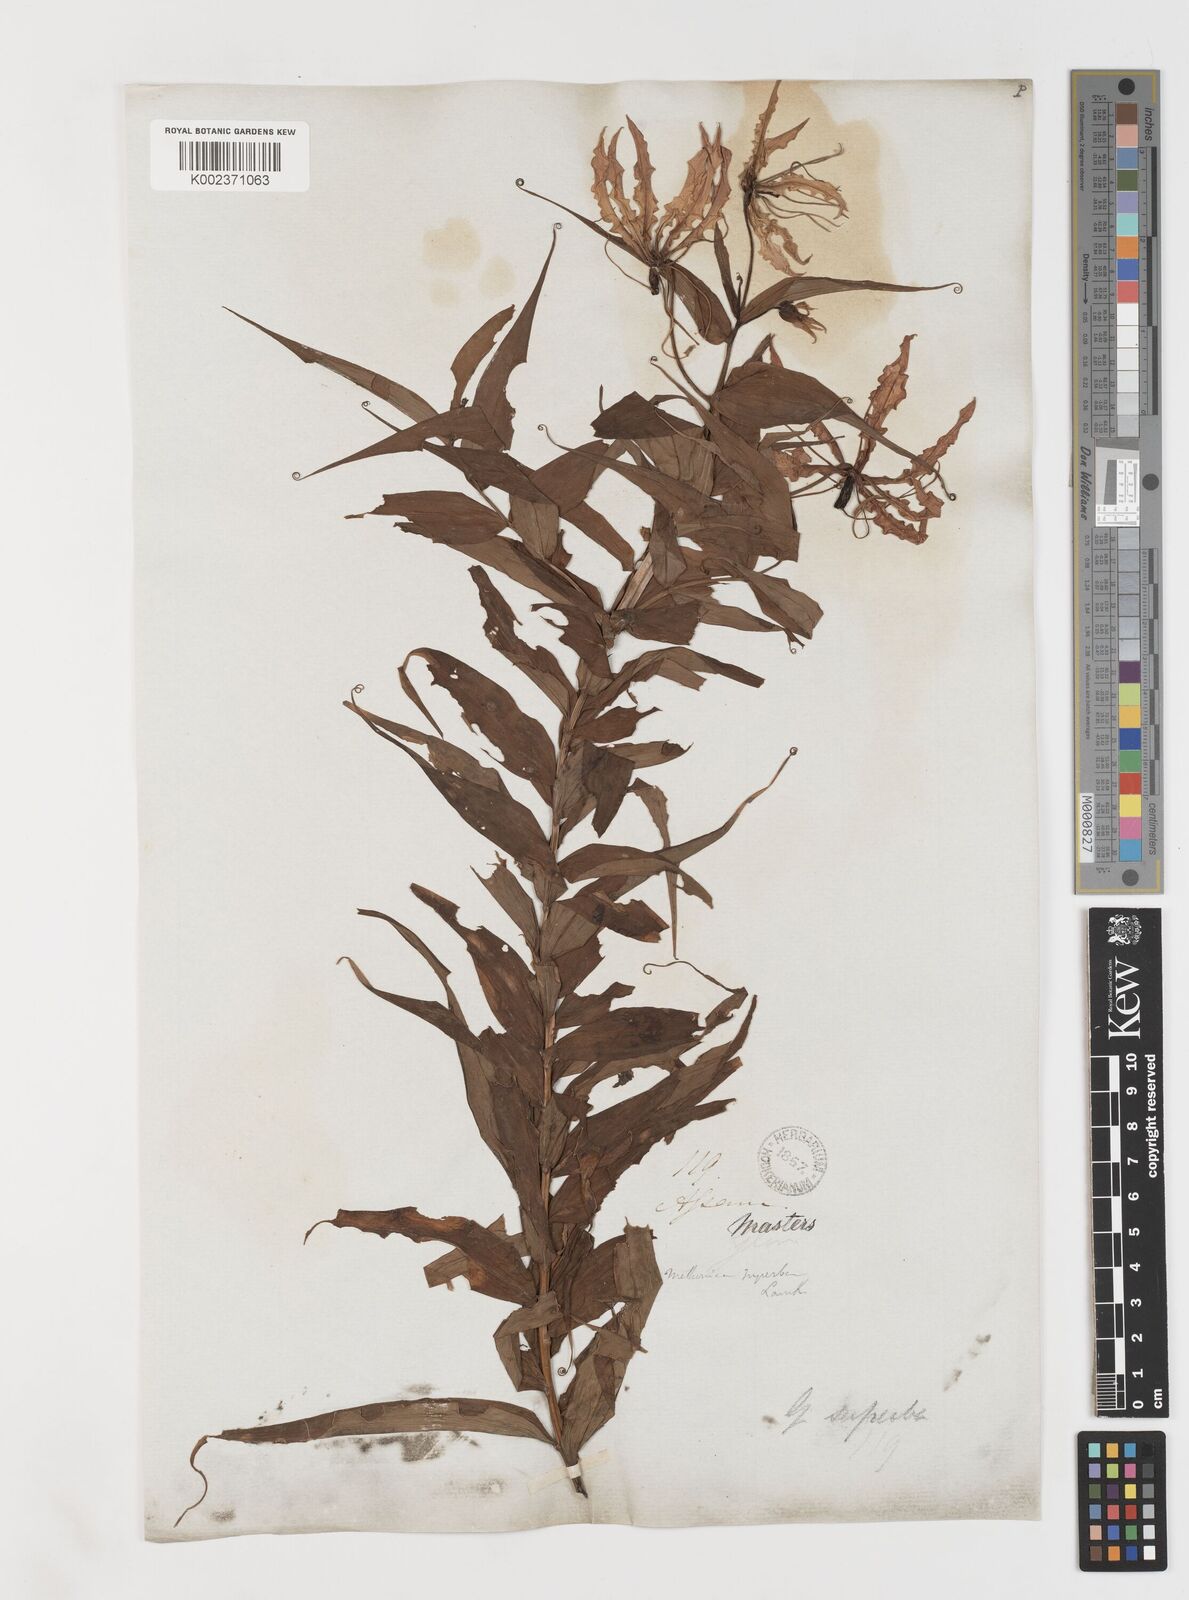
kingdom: Plantae
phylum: Tracheophyta
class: Liliopsida
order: Liliales
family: Colchicaceae
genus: Gloriosa
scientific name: Gloriosa superba
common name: Flame lily
